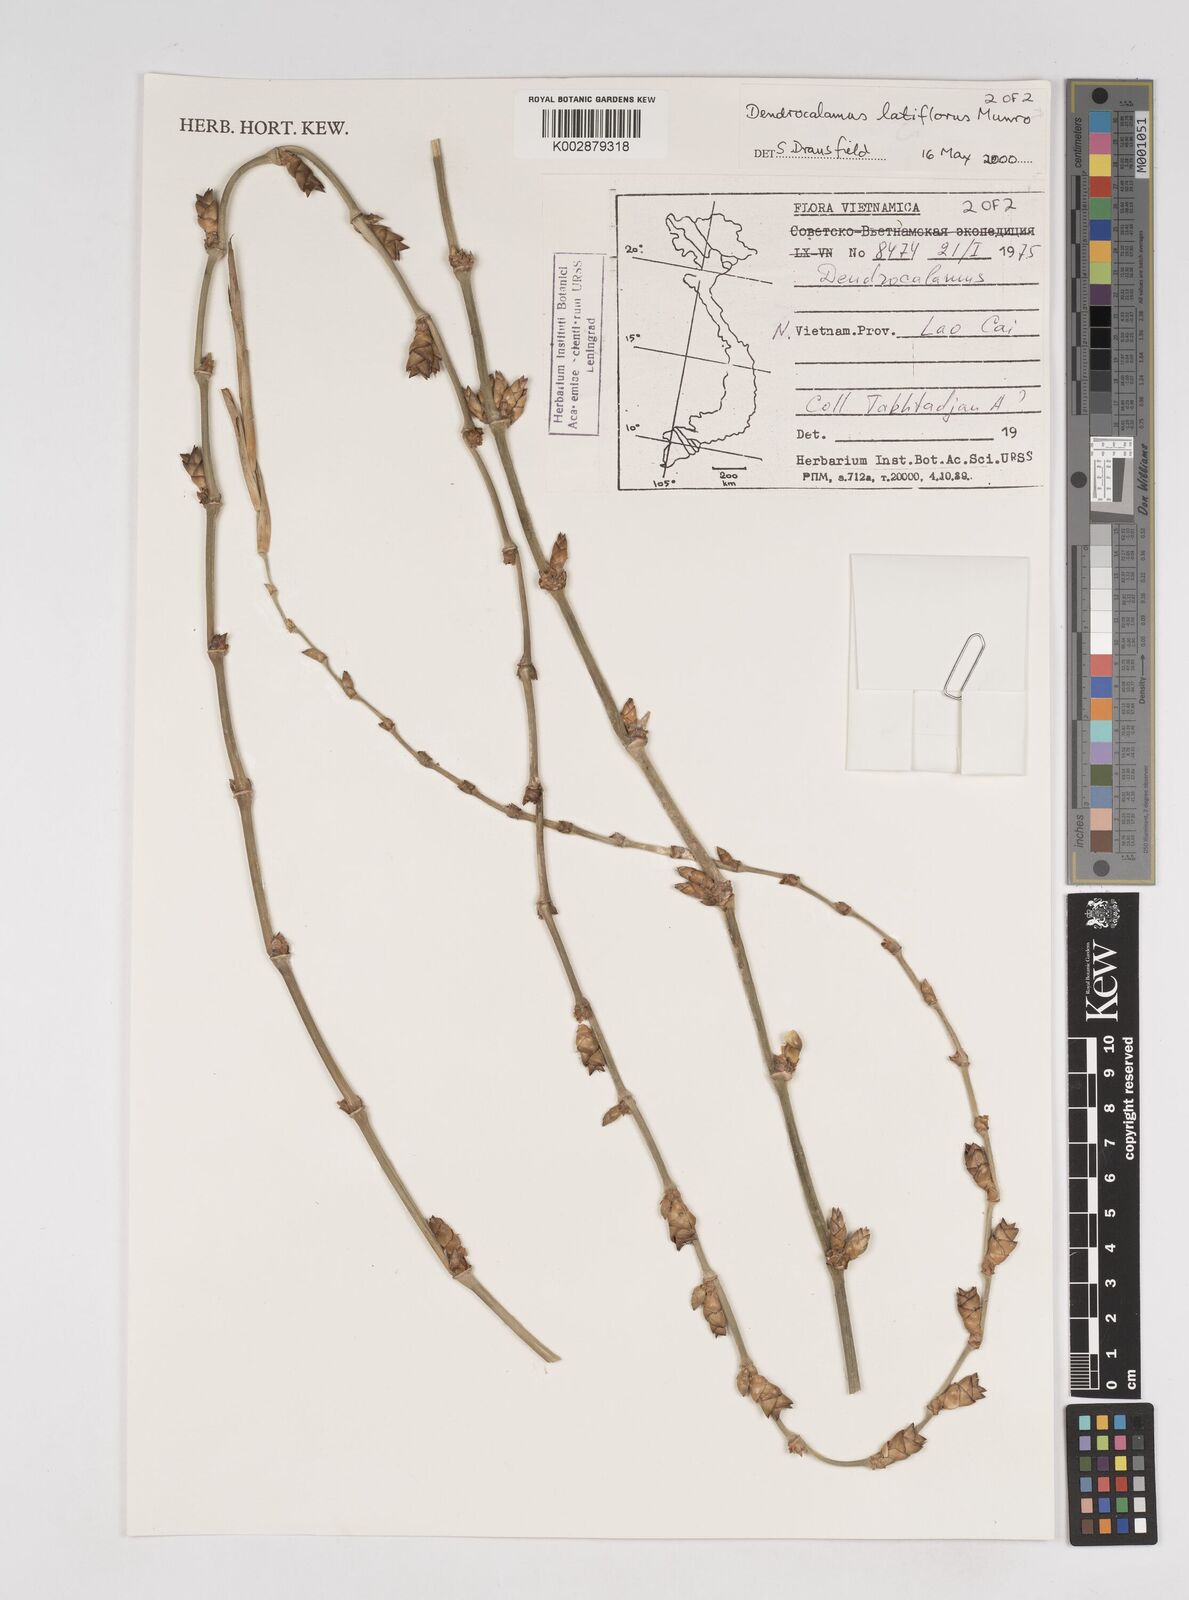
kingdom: Plantae
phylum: Tracheophyta
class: Liliopsida
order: Poales
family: Poaceae
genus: Dendrocalamus
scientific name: Dendrocalamus latiflorus
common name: Giant bamboo
